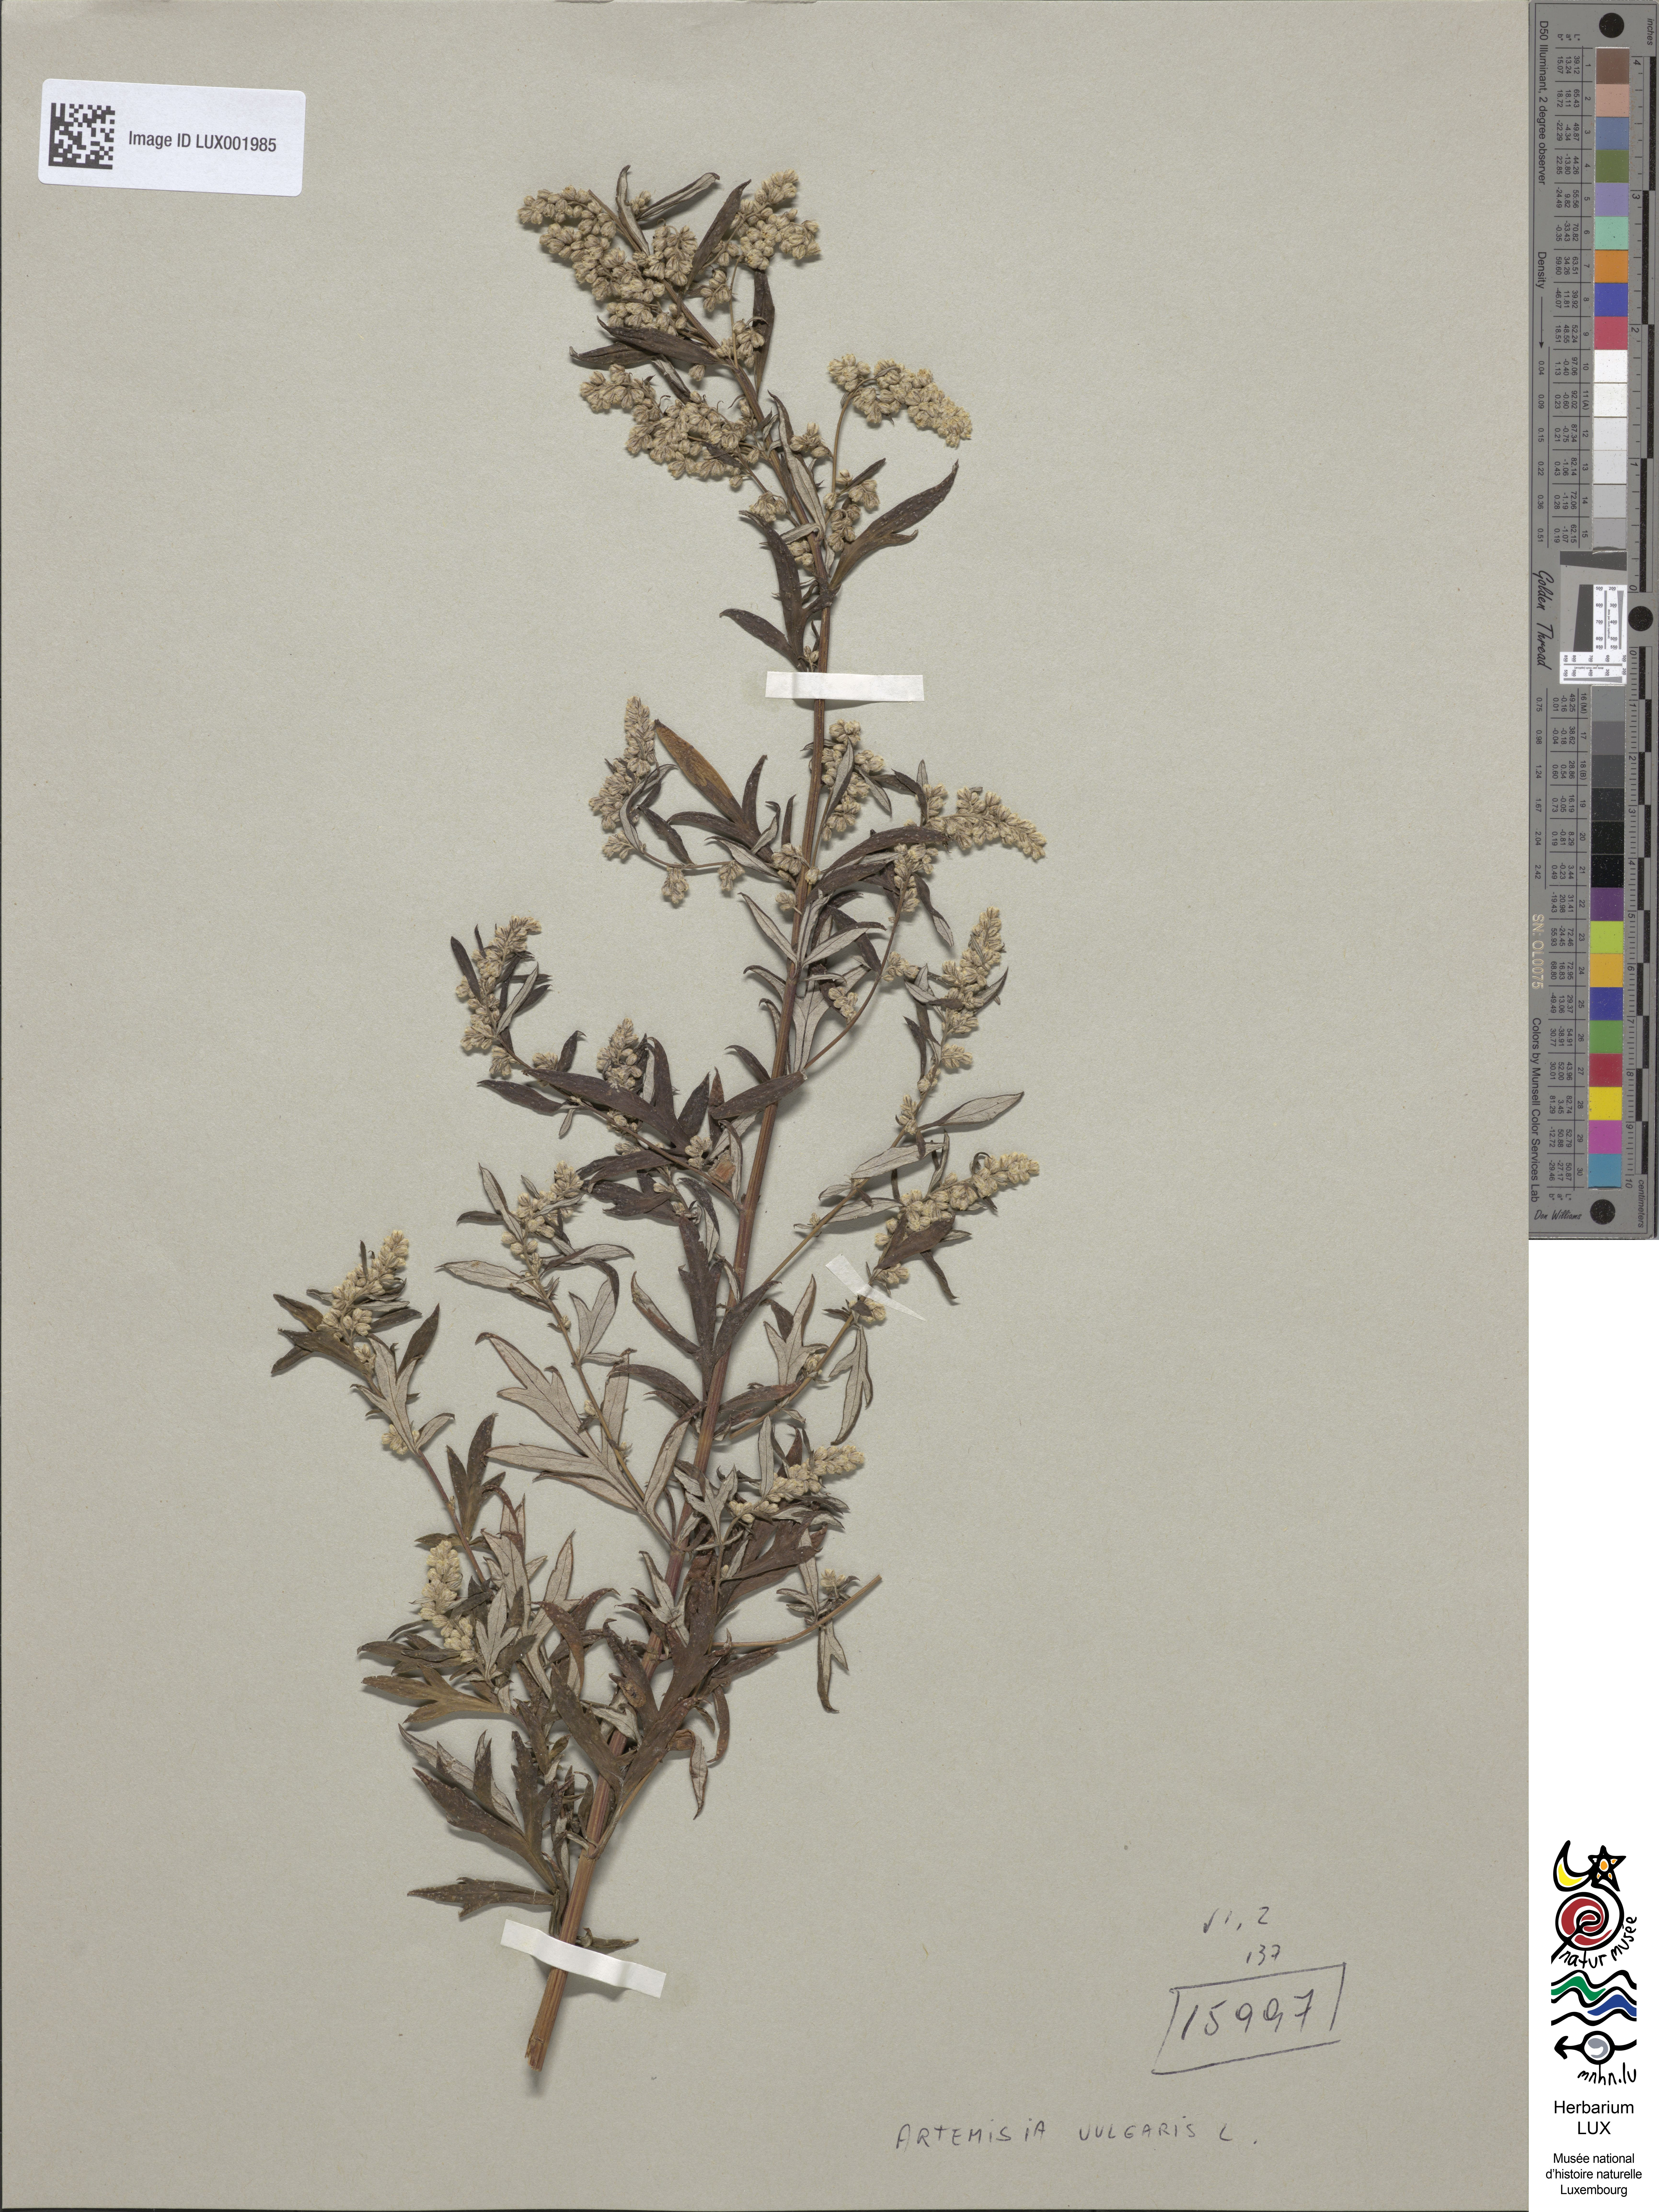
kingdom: Plantae
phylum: Tracheophyta
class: Magnoliopsida
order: Asterales
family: Asteraceae
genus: Artemisia
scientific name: Artemisia vulgaris
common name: Mugwort
